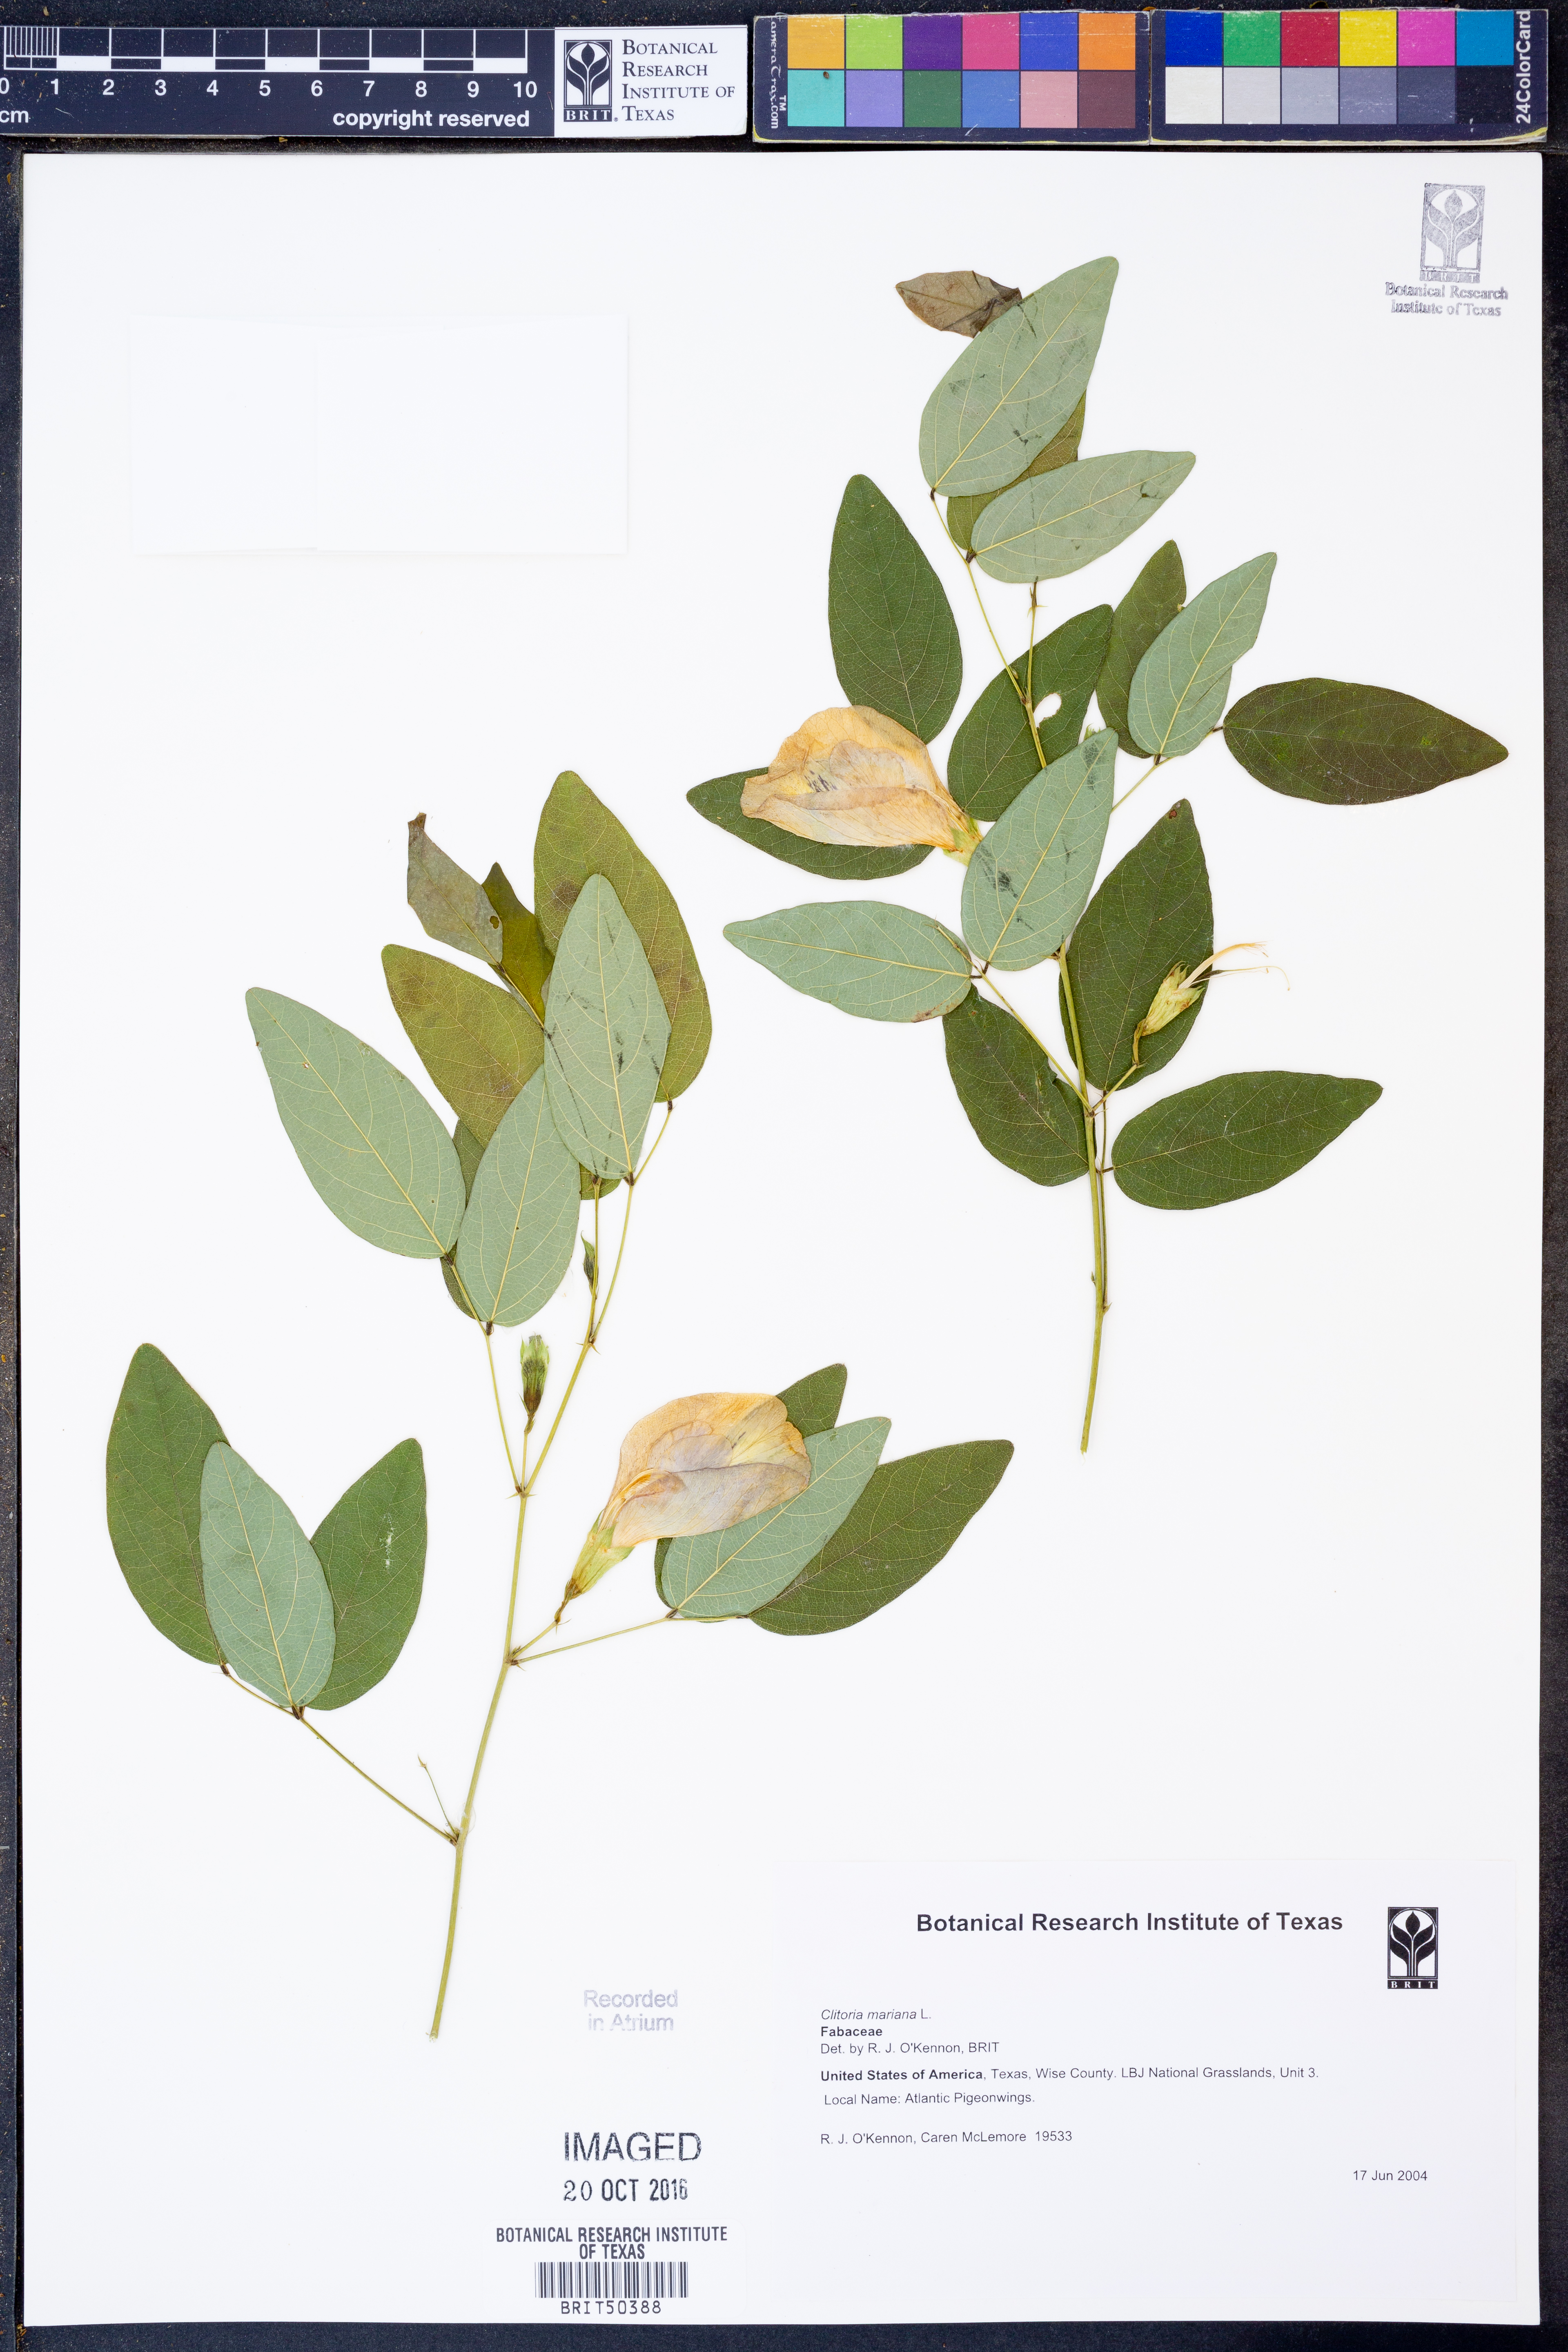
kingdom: Plantae
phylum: Tracheophyta
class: Magnoliopsida
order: Fabales
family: Fabaceae
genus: Clitoria
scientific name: Clitoria mariana
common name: Butterfly-pea
